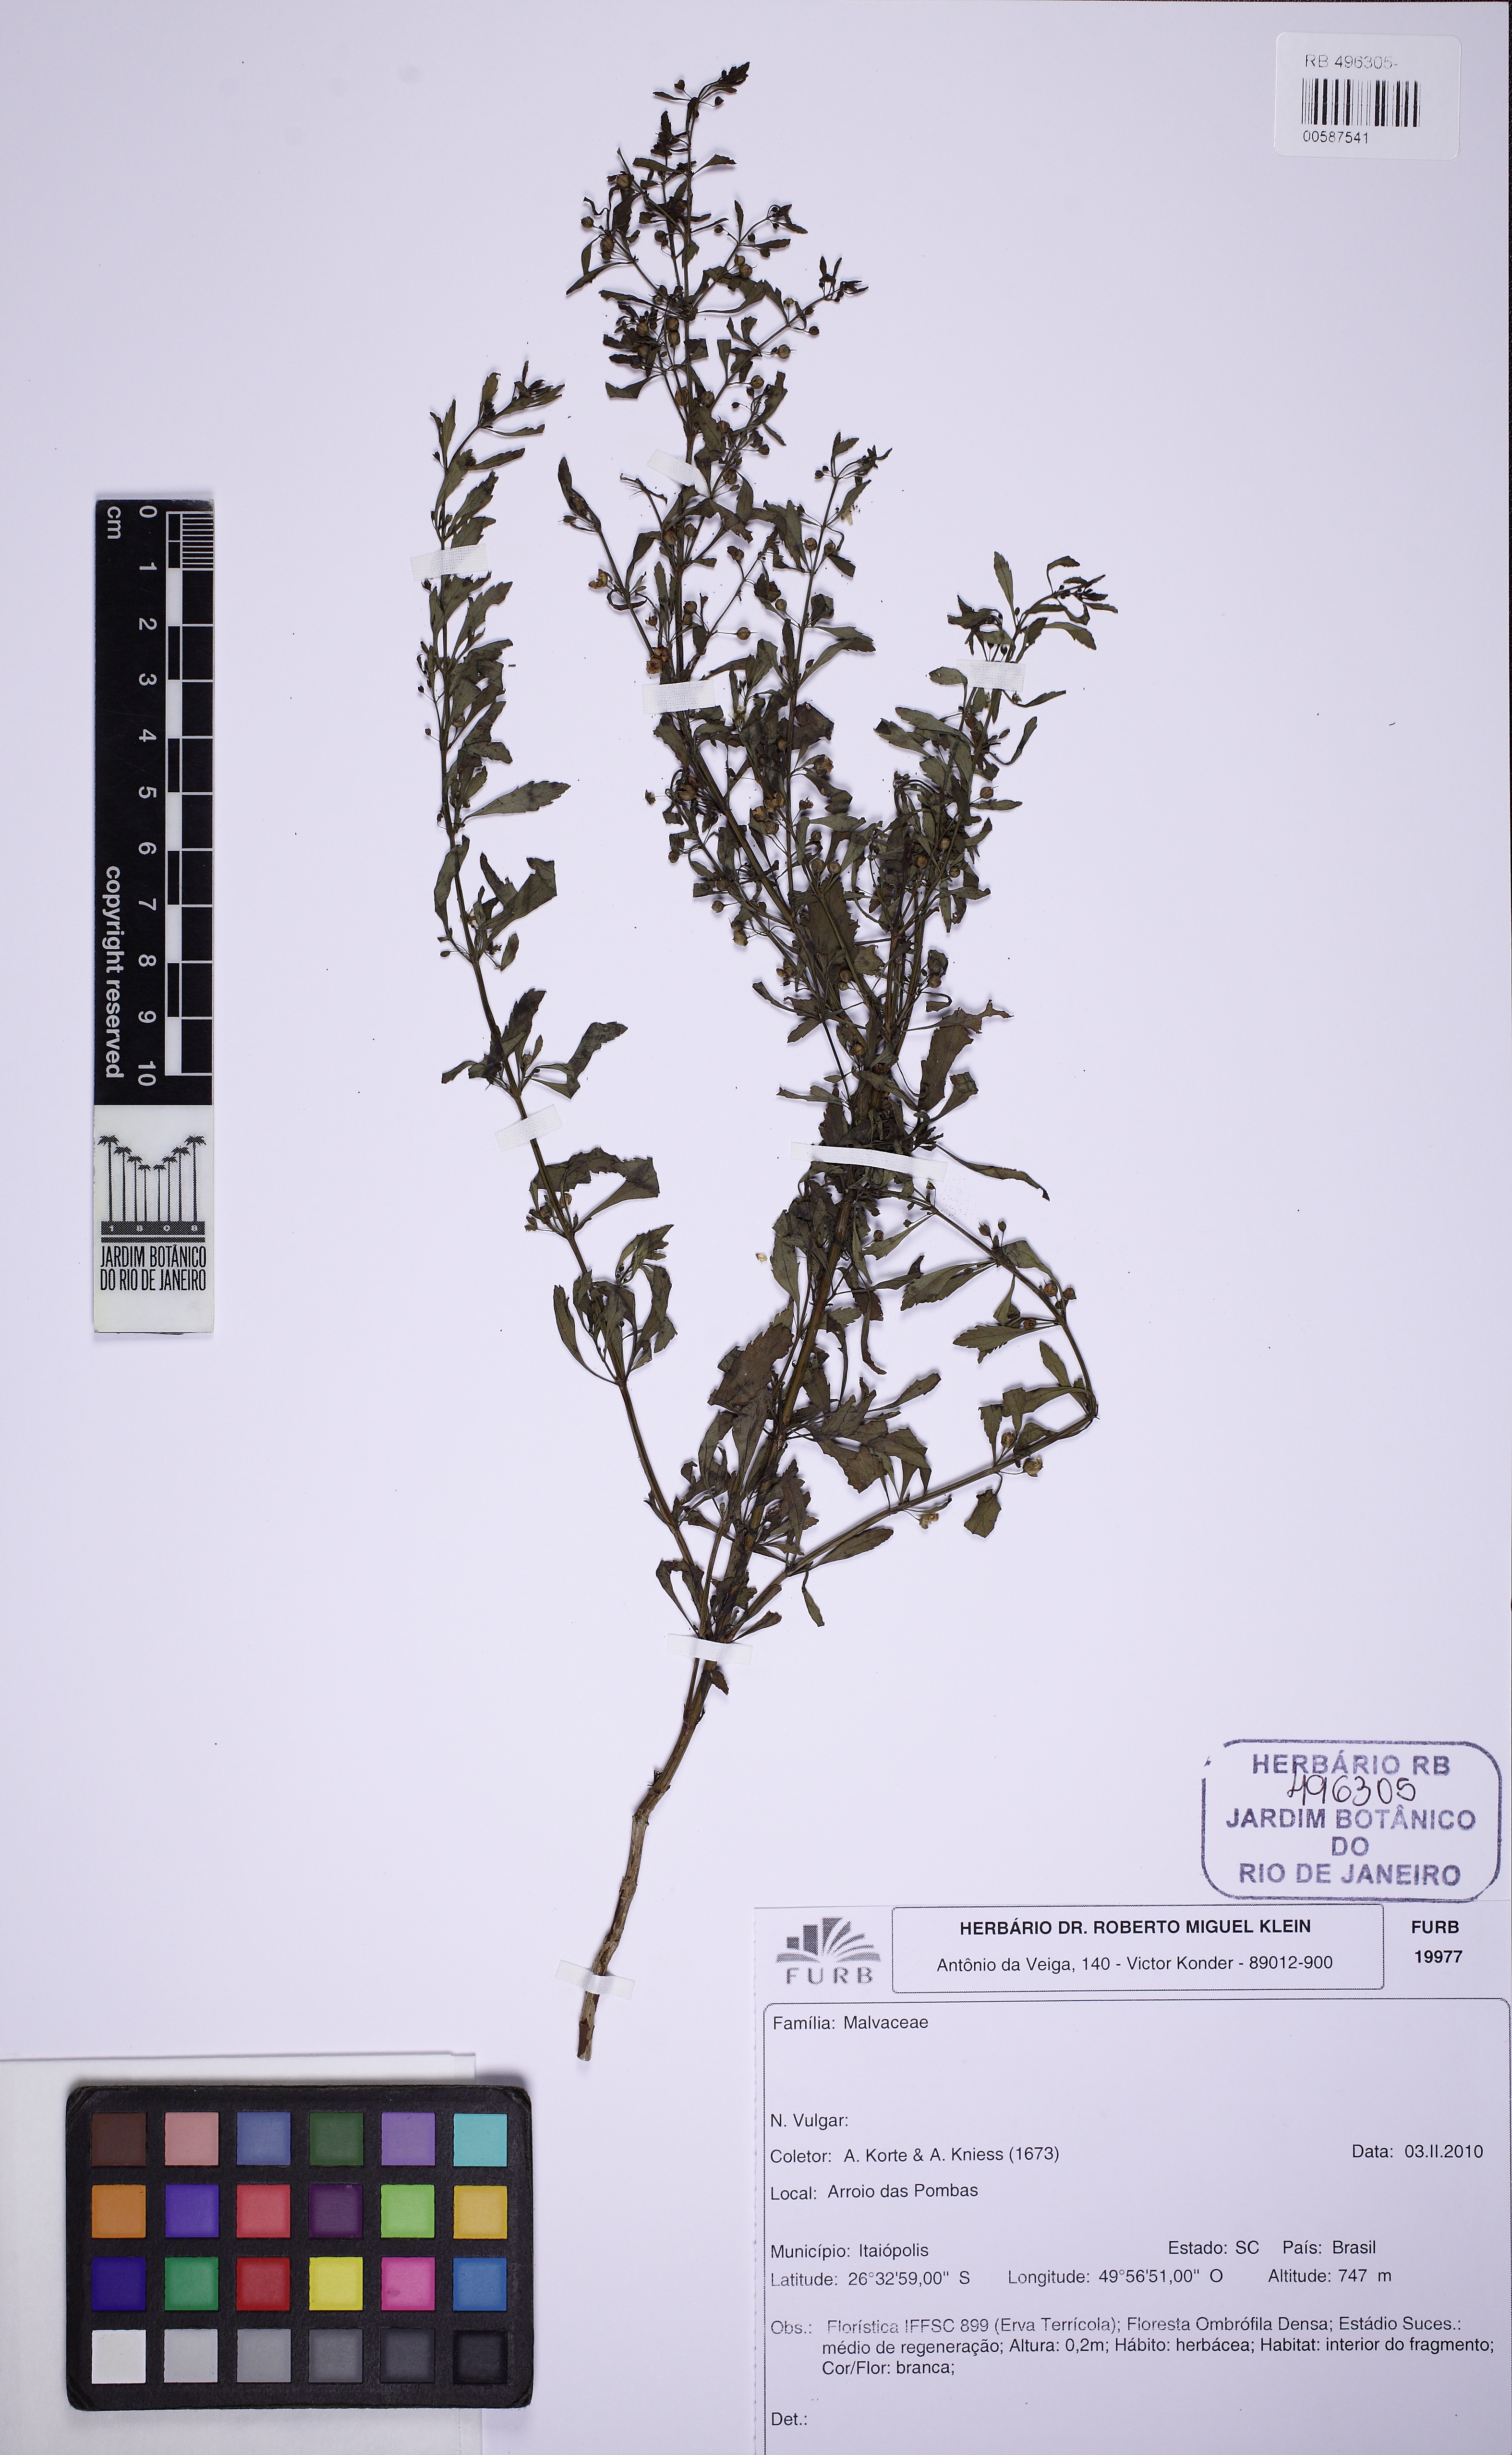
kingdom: Plantae
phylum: Tracheophyta
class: Magnoliopsida
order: Malvales
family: Malvaceae
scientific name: Malvaceae
